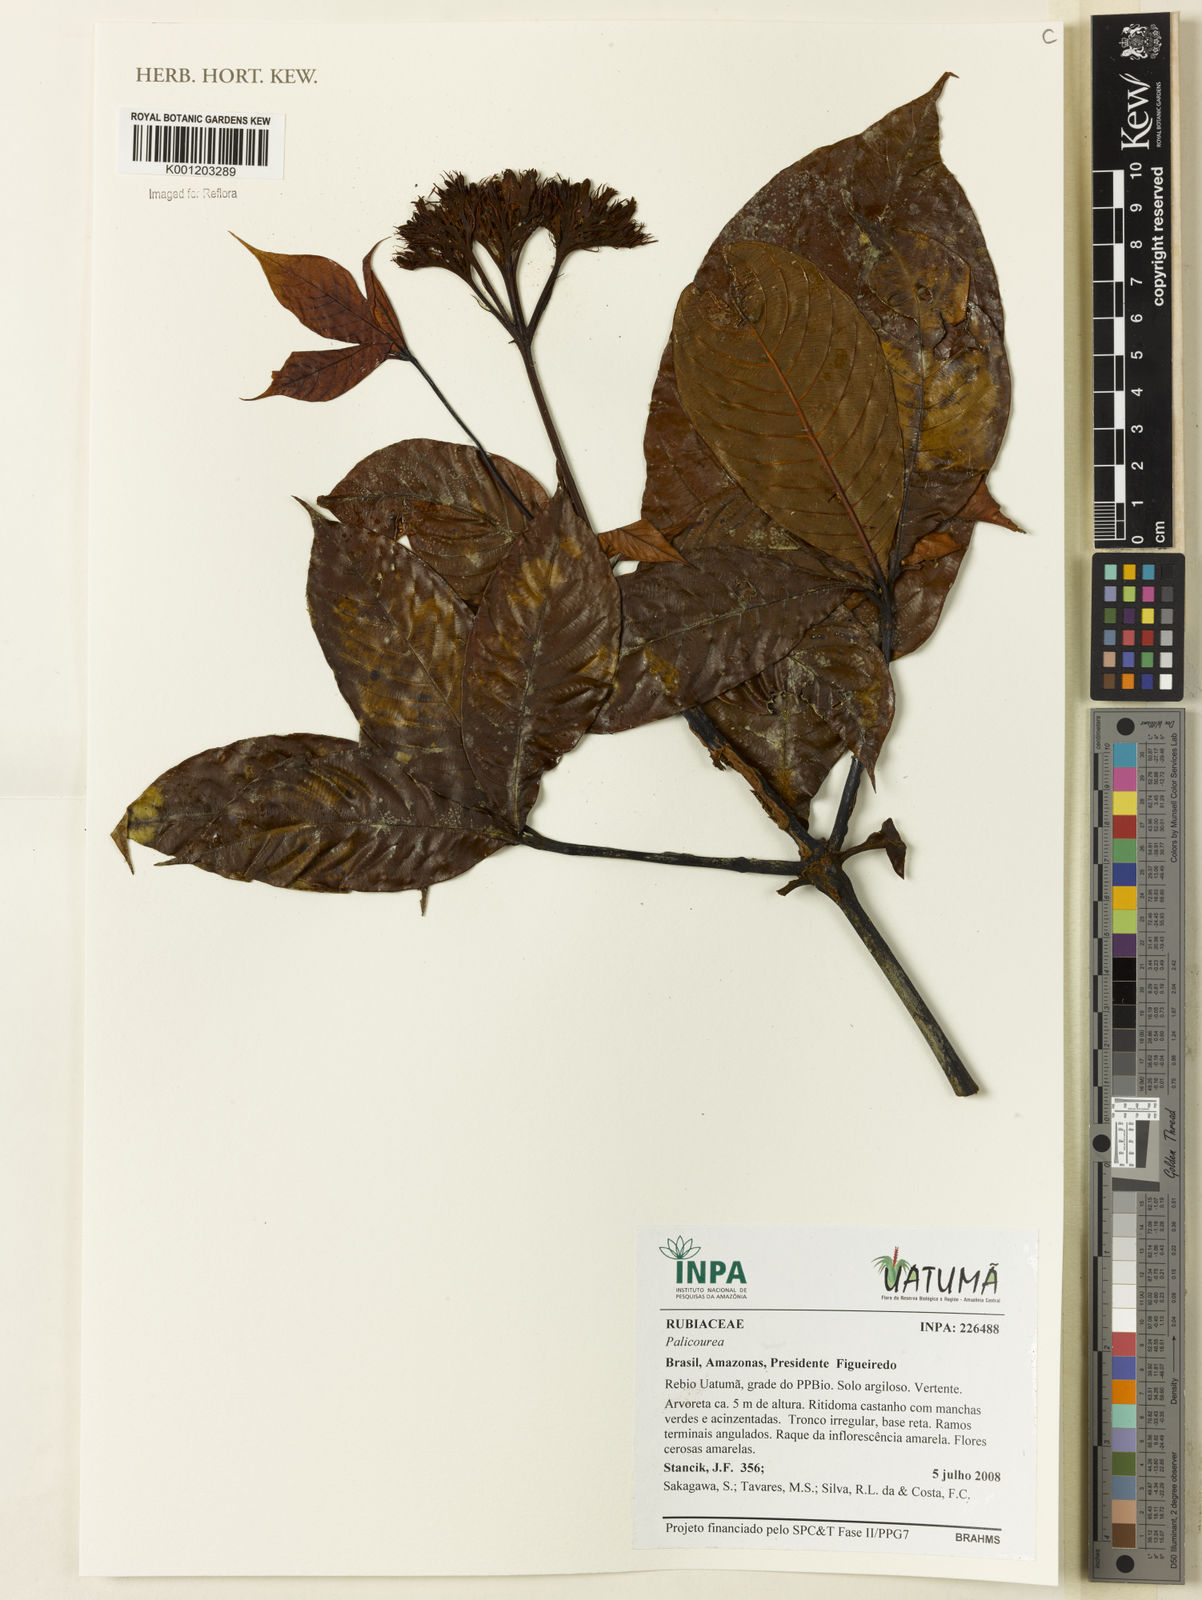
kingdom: Plantae
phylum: Tracheophyta
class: Magnoliopsida
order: Gentianales
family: Rubiaceae
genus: Palicourea
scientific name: Palicourea
